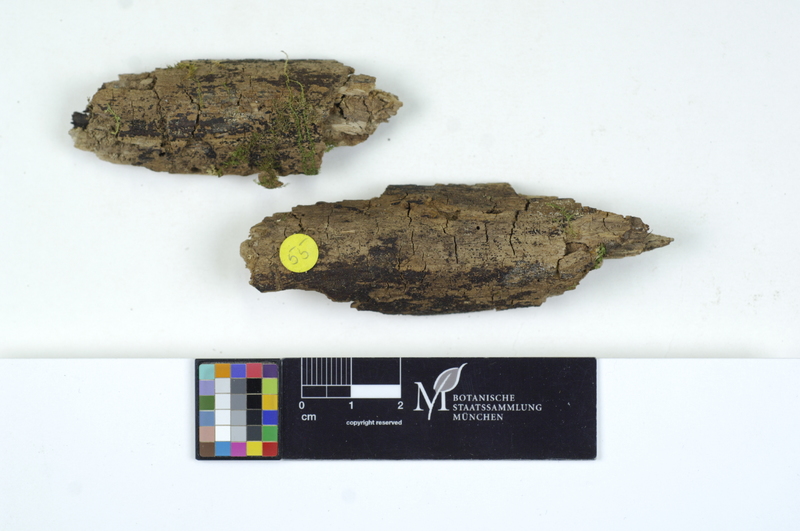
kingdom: Fungi
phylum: Basidiomycota
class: Agaricomycetes
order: Auriculariales
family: Hyaloriaceae
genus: Protomerulius
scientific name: Protomerulius dubius
